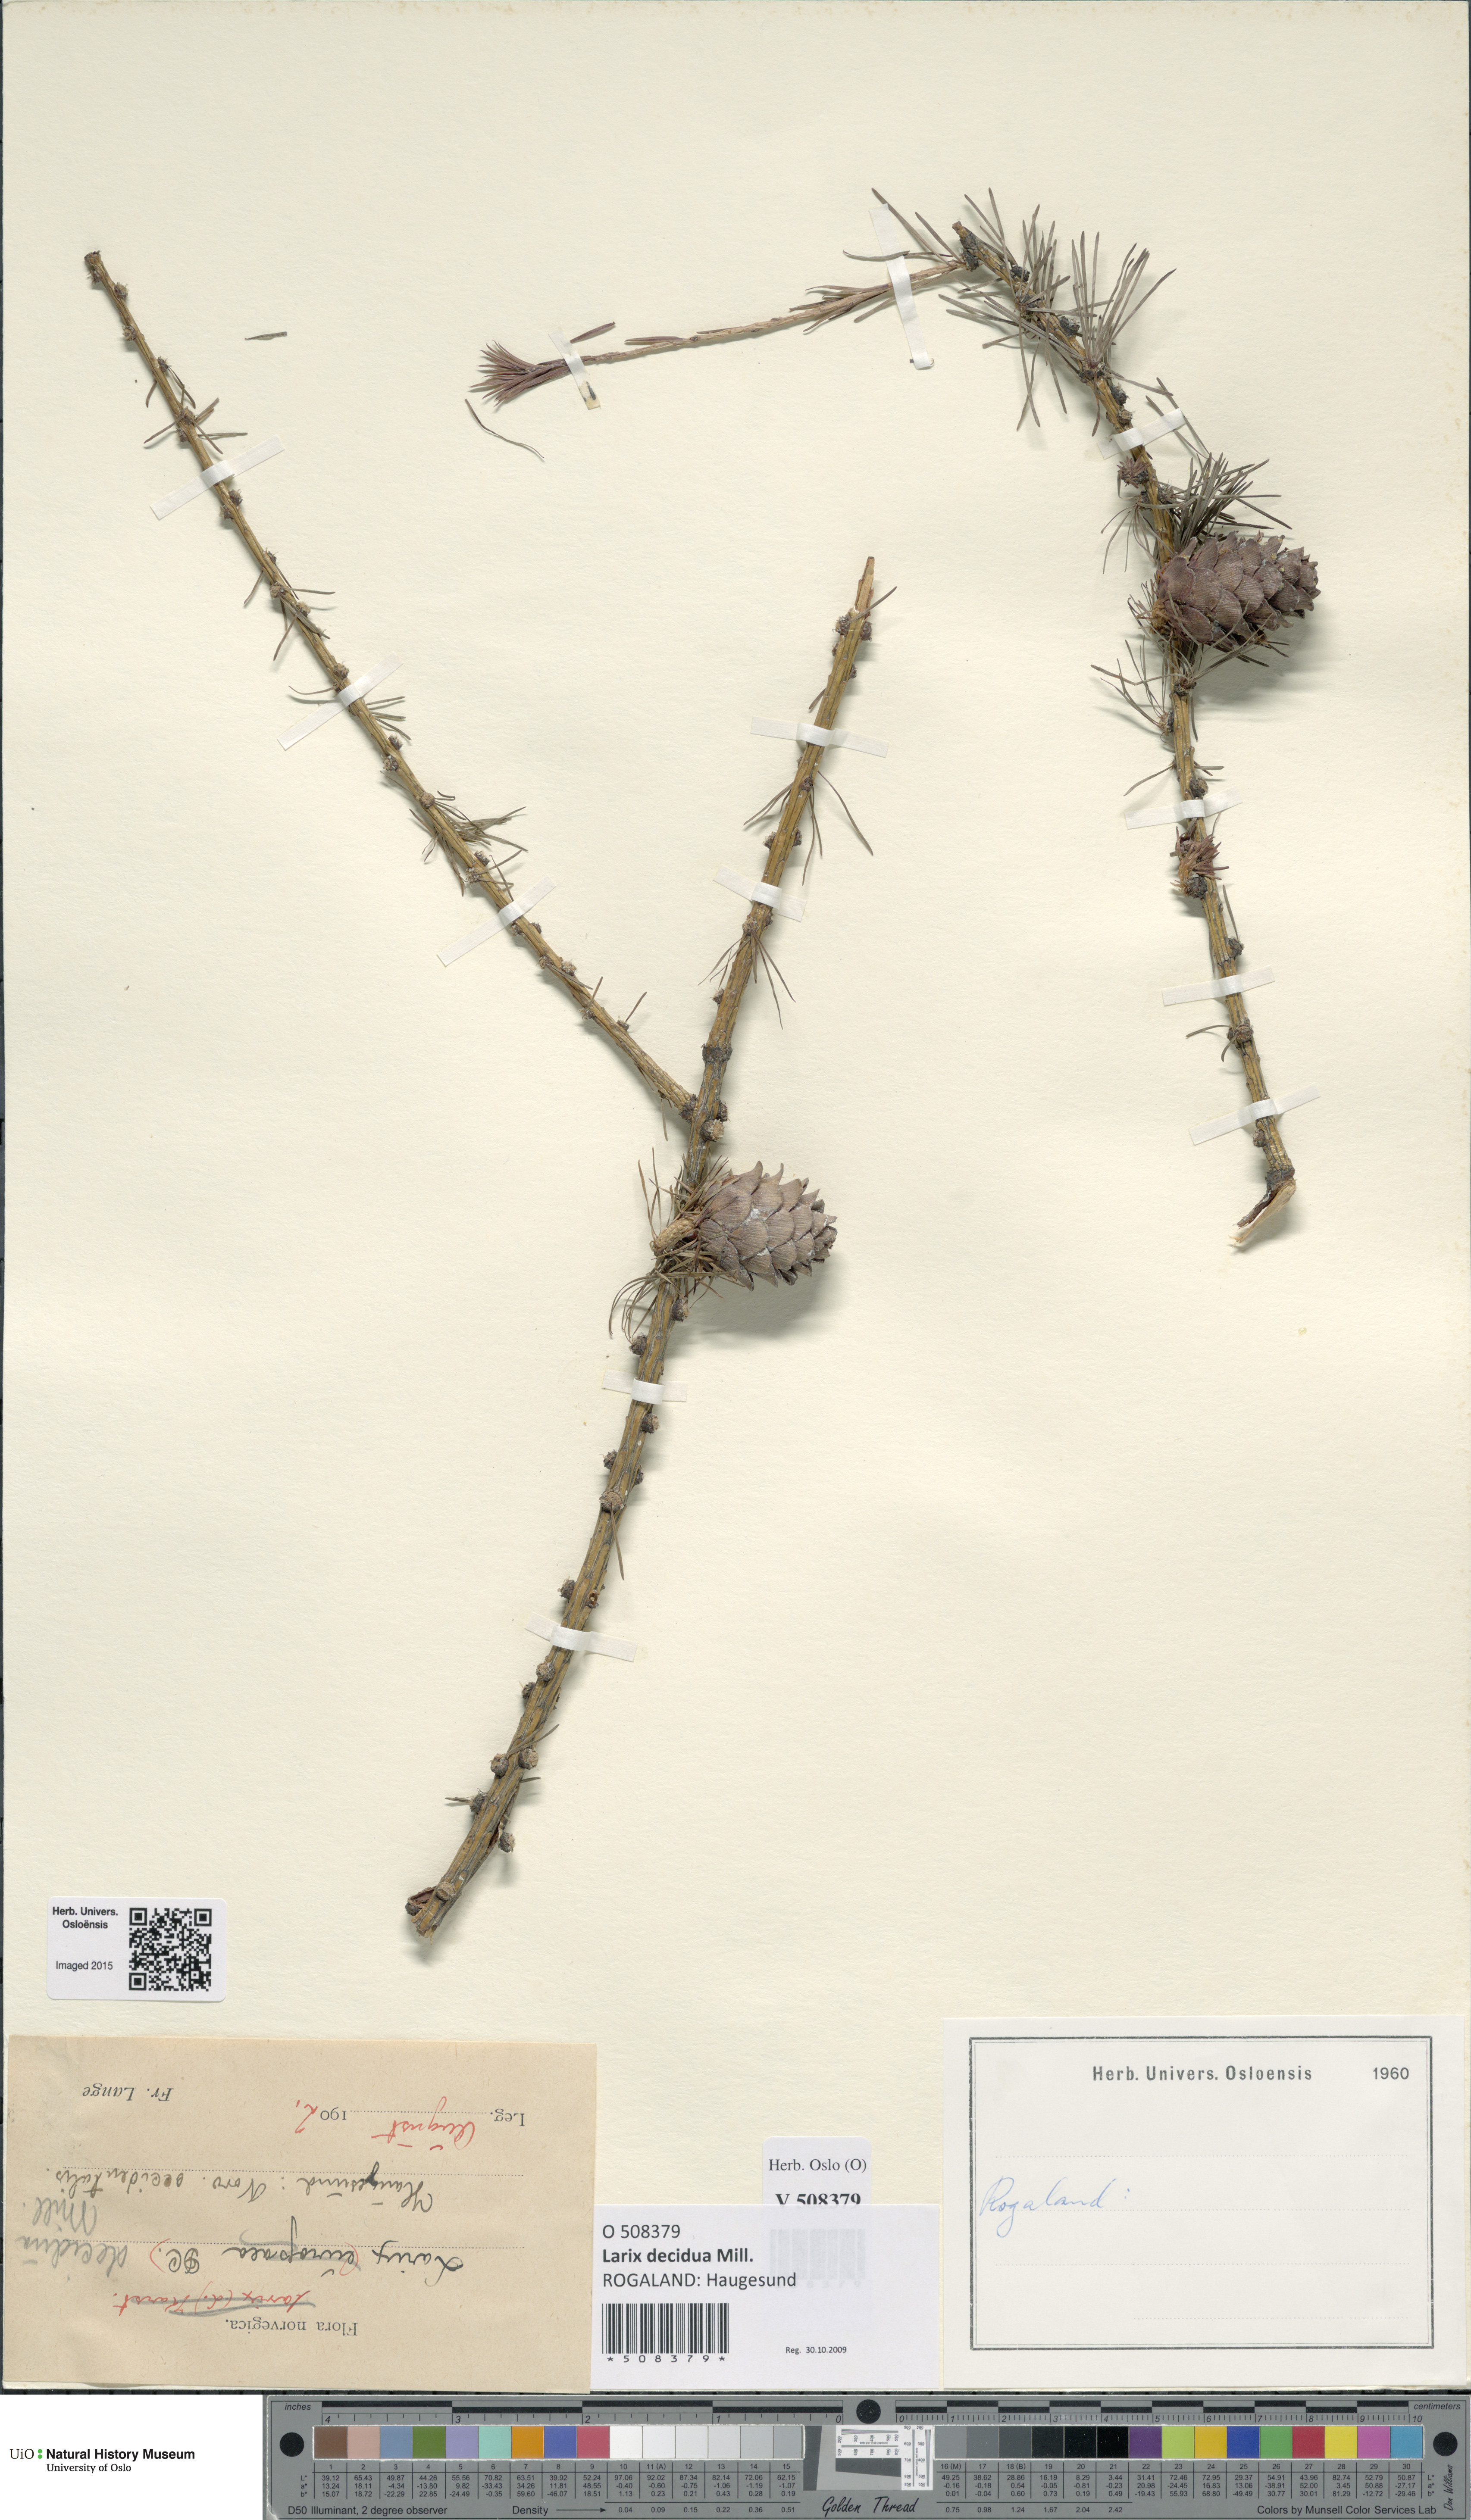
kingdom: Plantae
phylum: Tracheophyta
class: Pinopsida
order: Pinales
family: Pinaceae
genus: Larix
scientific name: Larix decidua
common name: European larch
